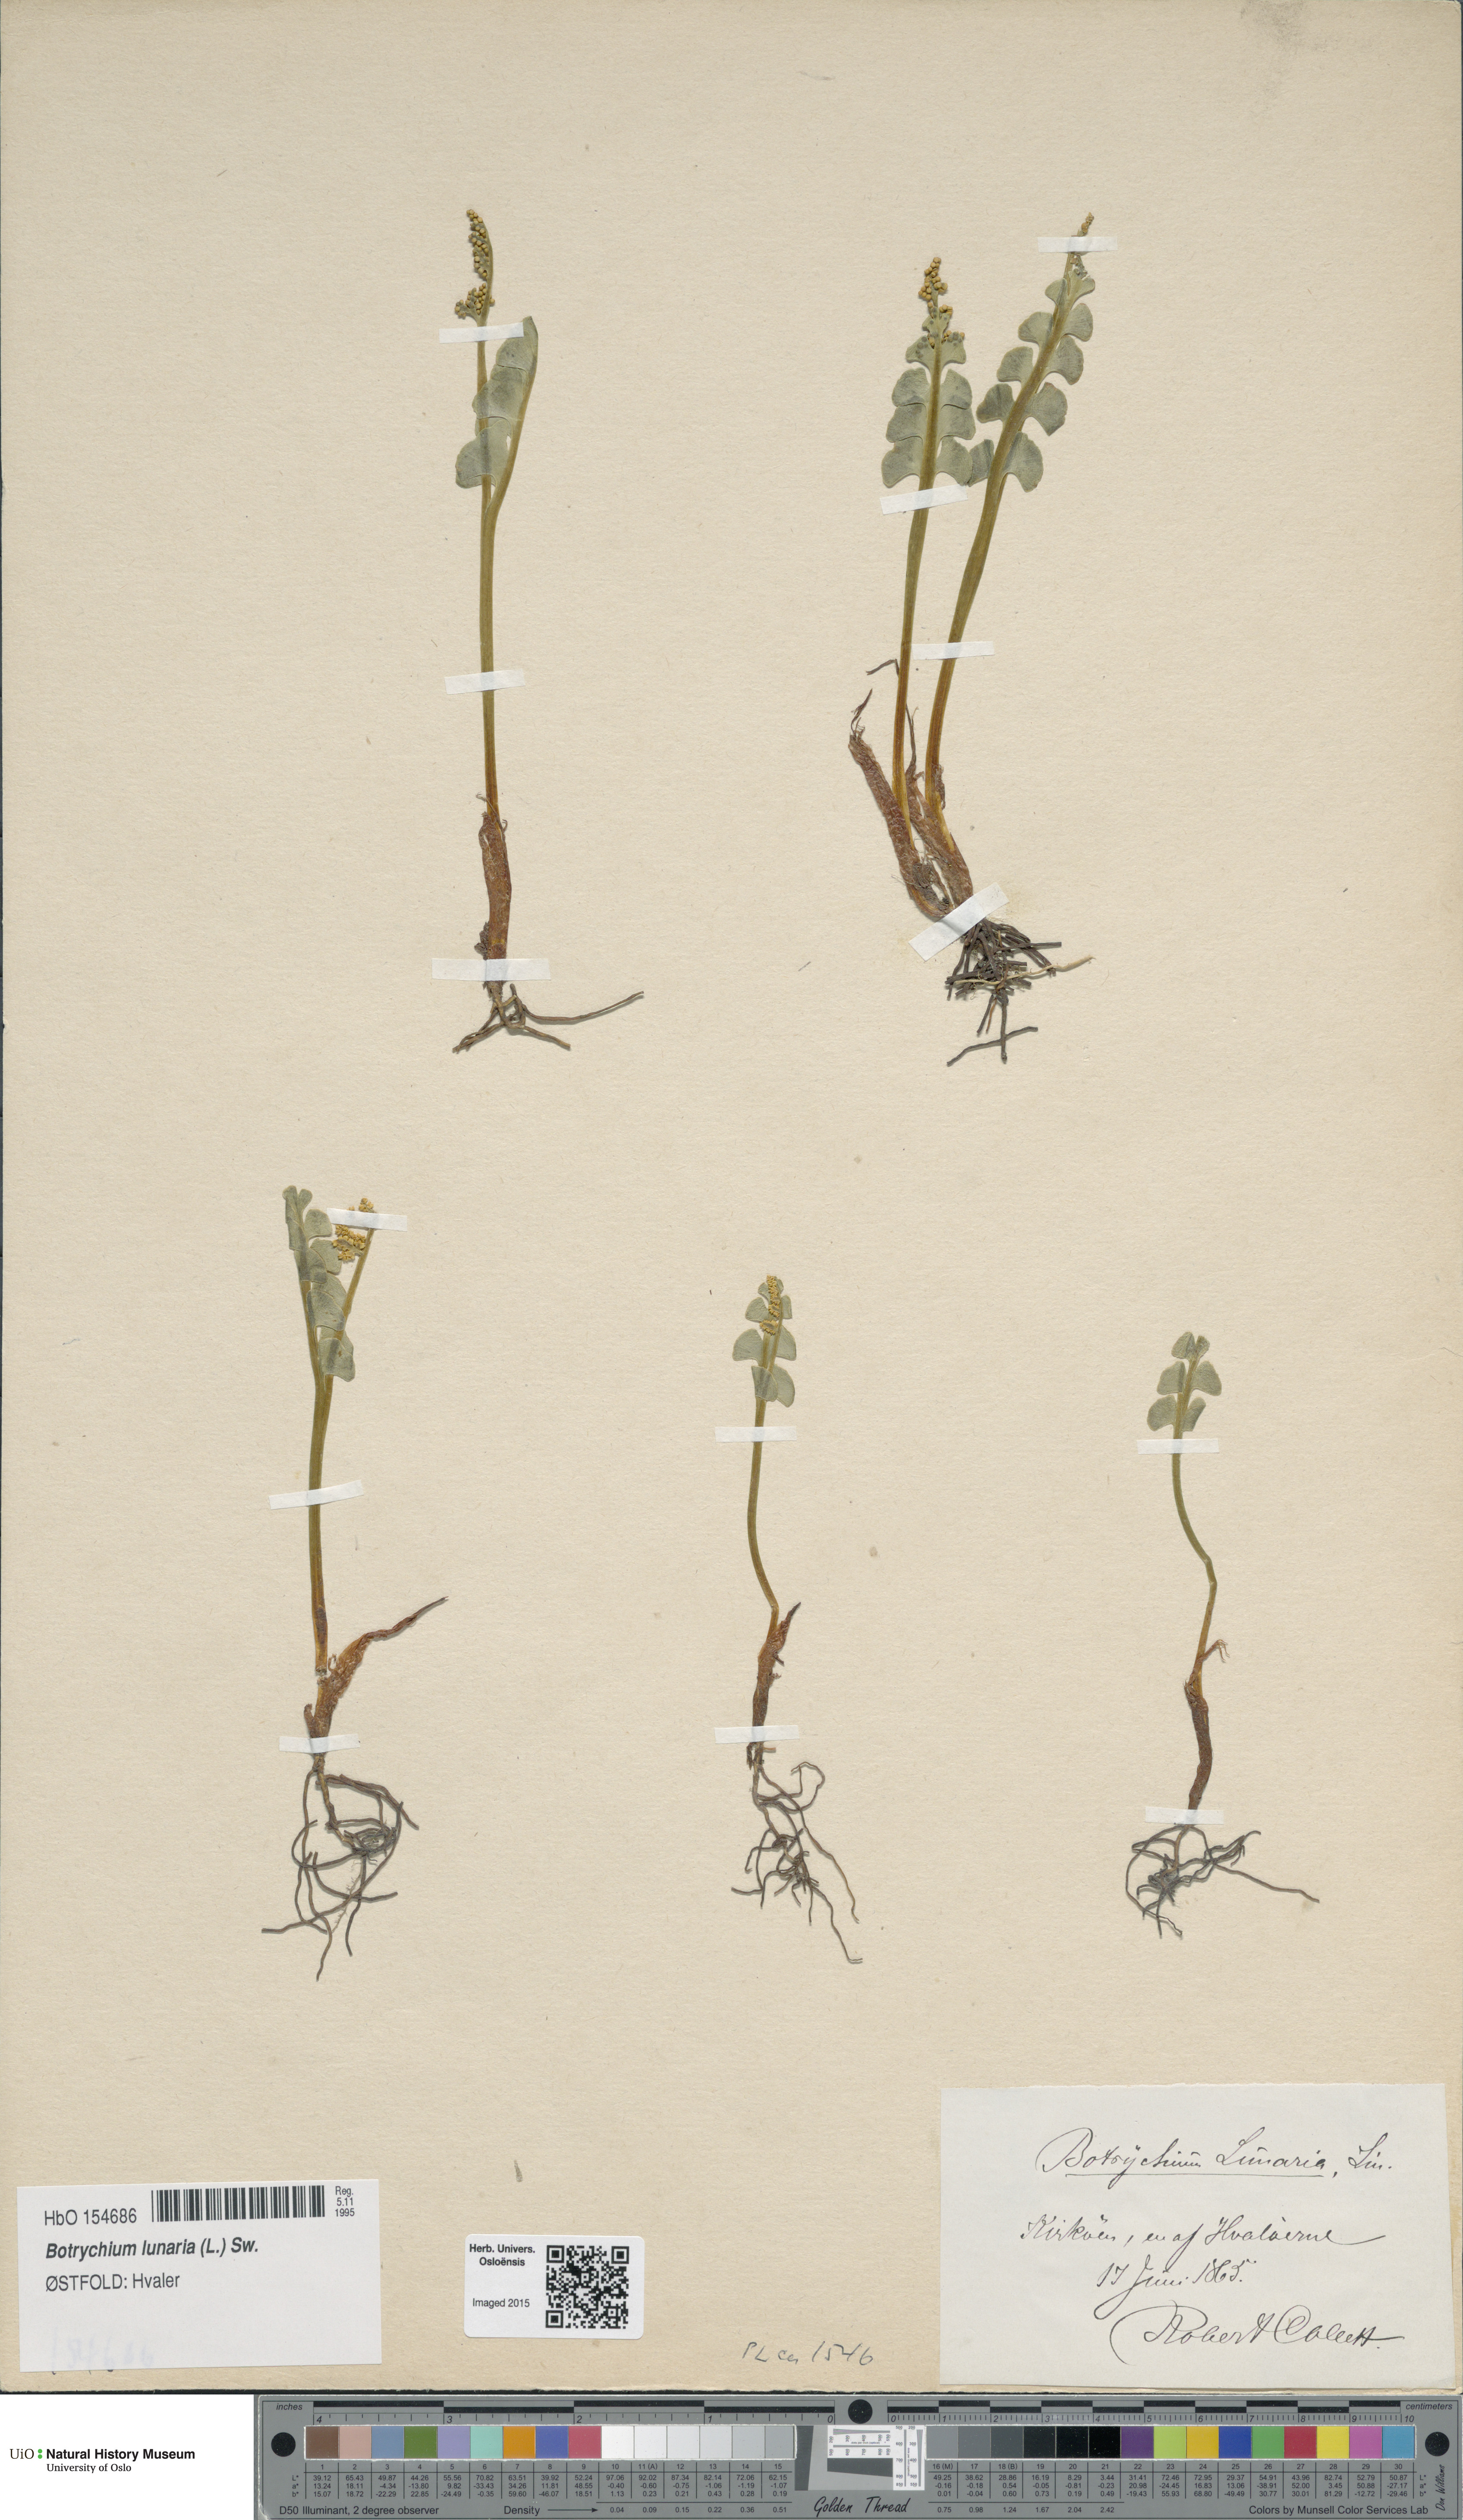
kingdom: Plantae
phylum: Tracheophyta
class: Polypodiopsida
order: Ophioglossales
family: Ophioglossaceae
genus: Botrychium
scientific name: Botrychium lunaria
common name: Moonwort
